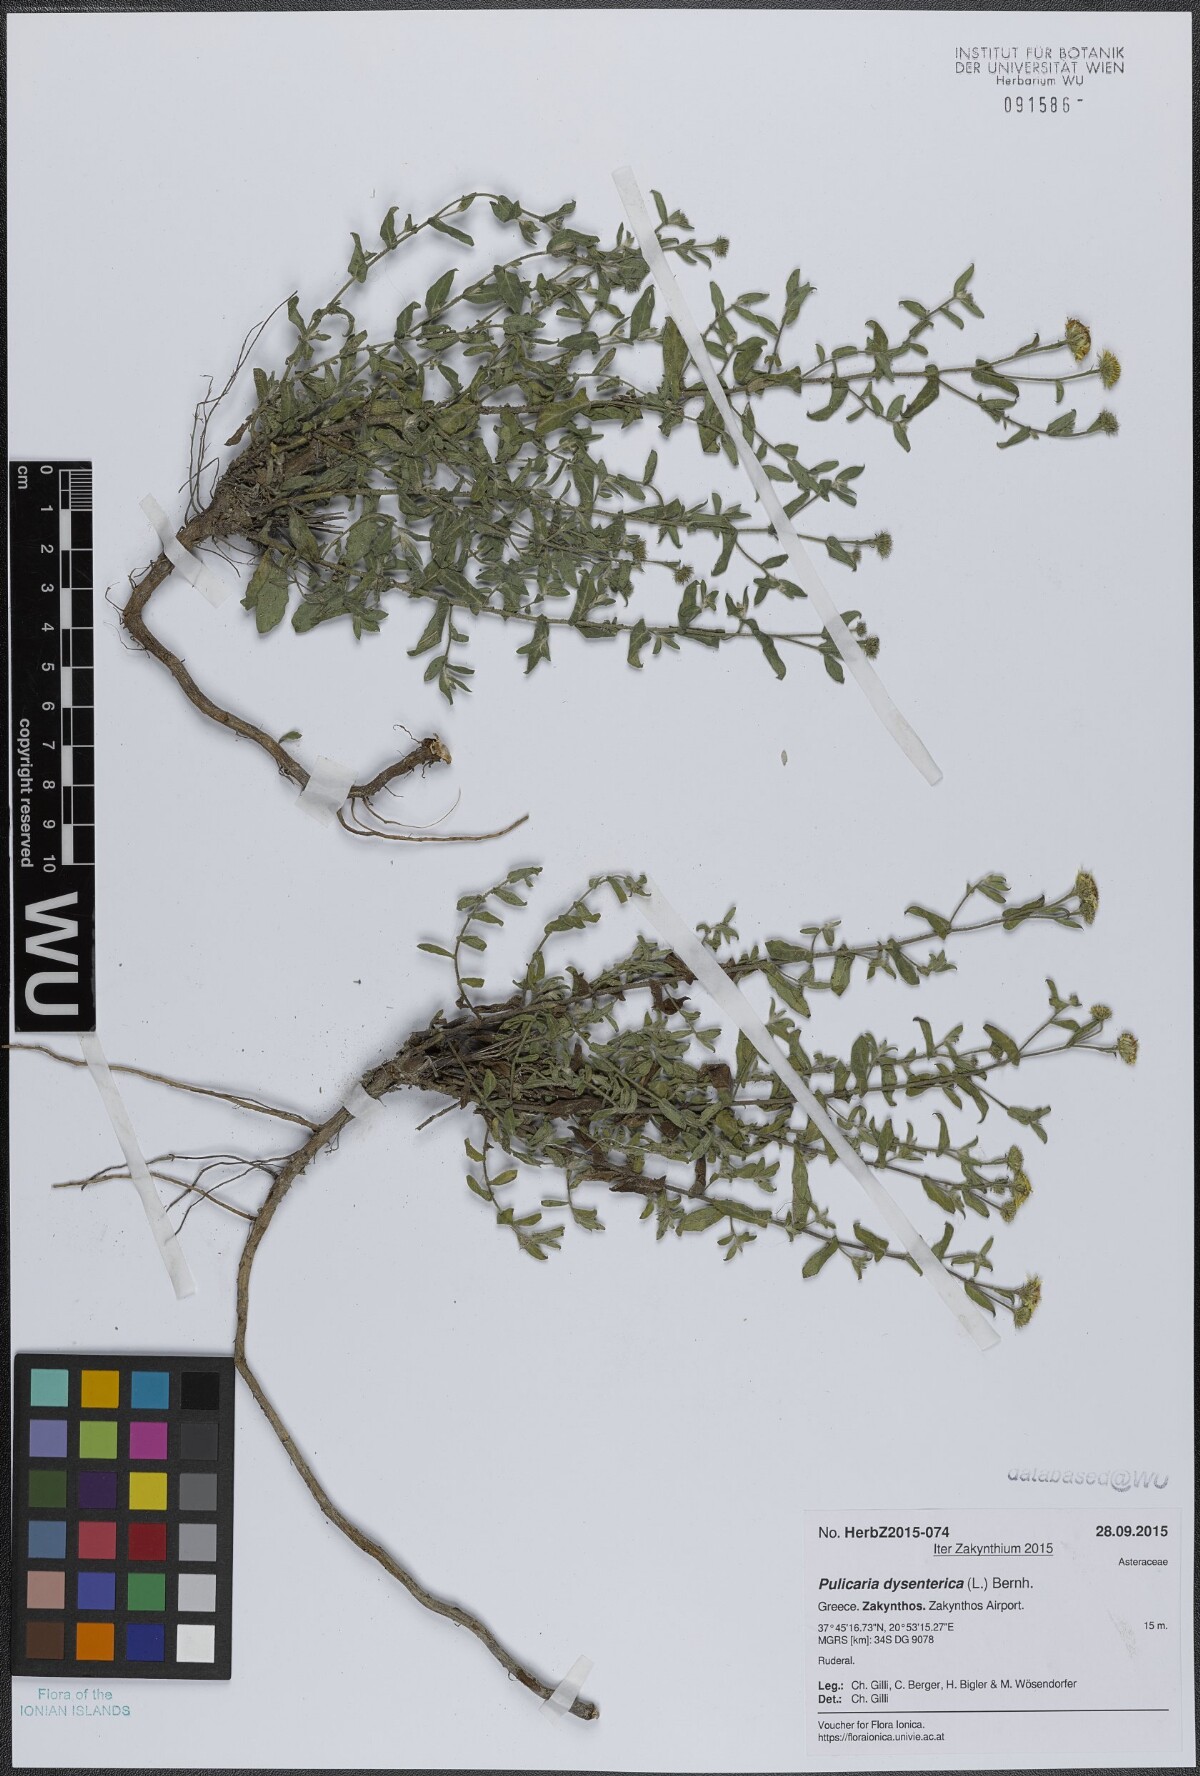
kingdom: Plantae
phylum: Tracheophyta
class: Magnoliopsida
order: Asterales
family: Asteraceae
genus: Pulicaria
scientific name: Pulicaria dysenterica
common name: Common fleabane
